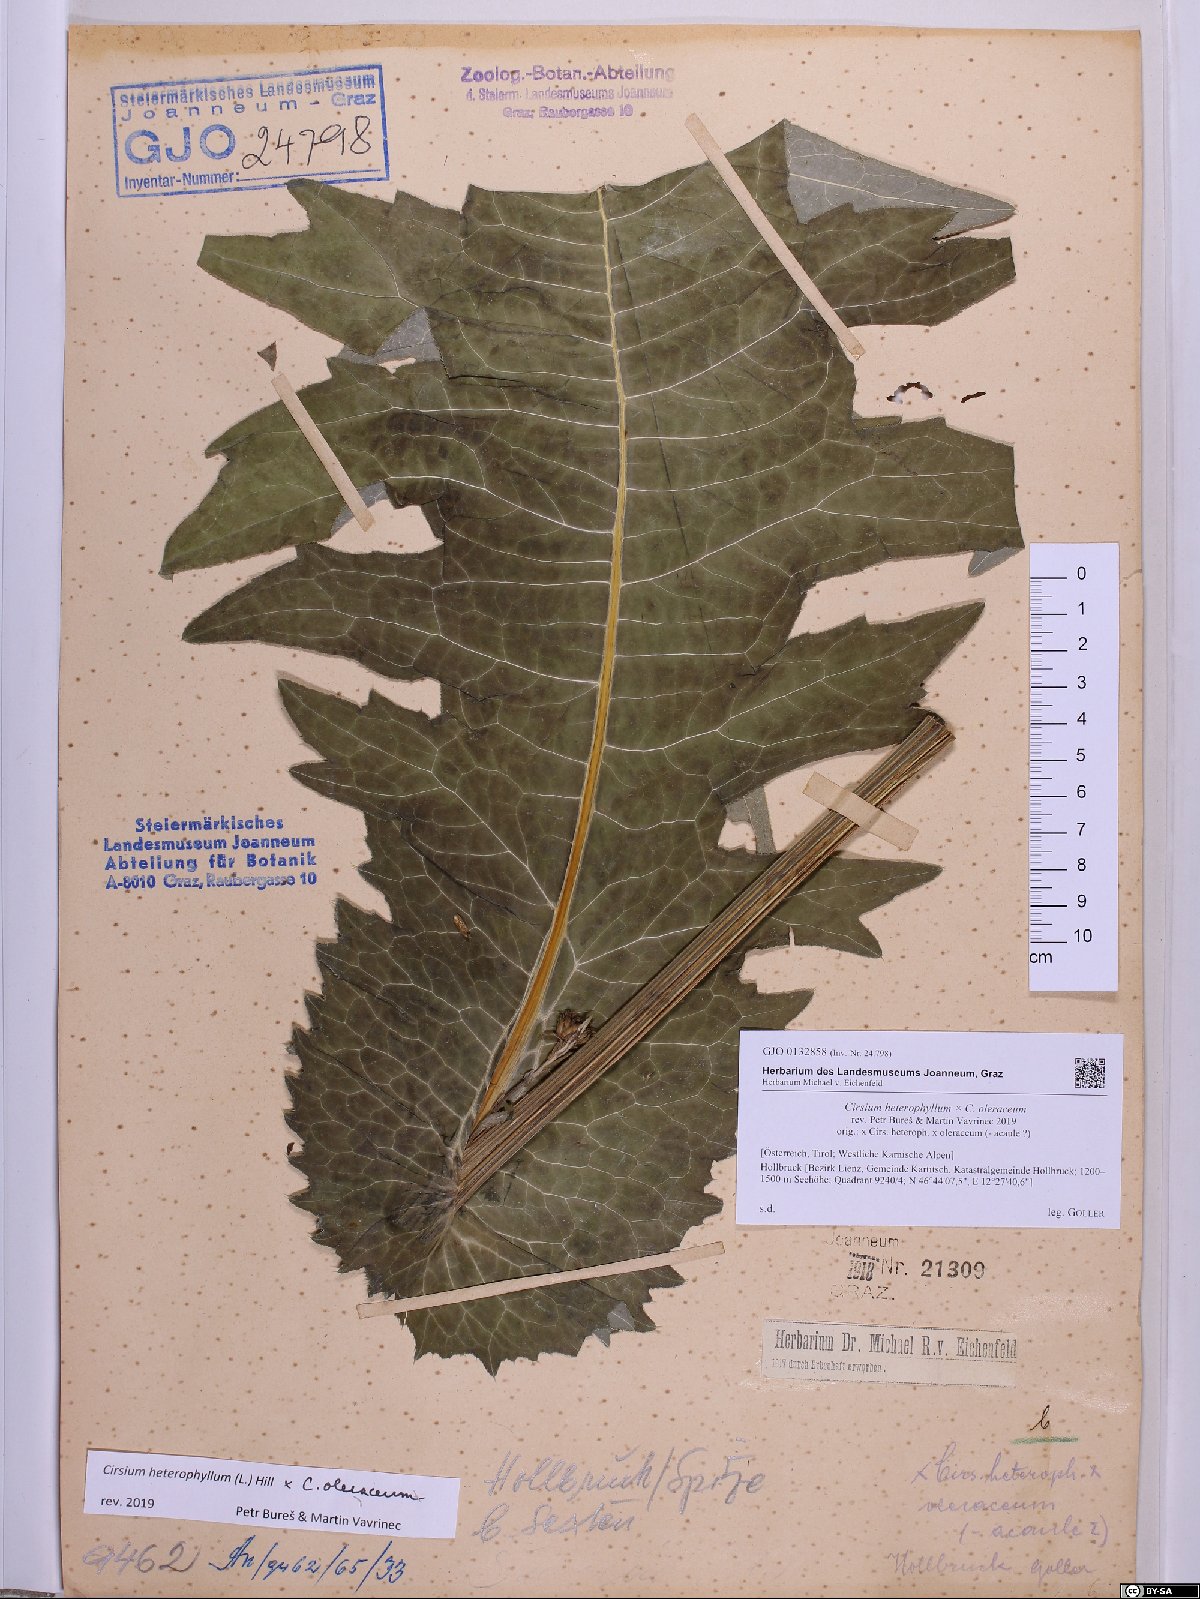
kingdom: Plantae
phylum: Tracheophyta
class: Magnoliopsida
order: Asterales
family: Asteraceae
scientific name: Asteraceae
